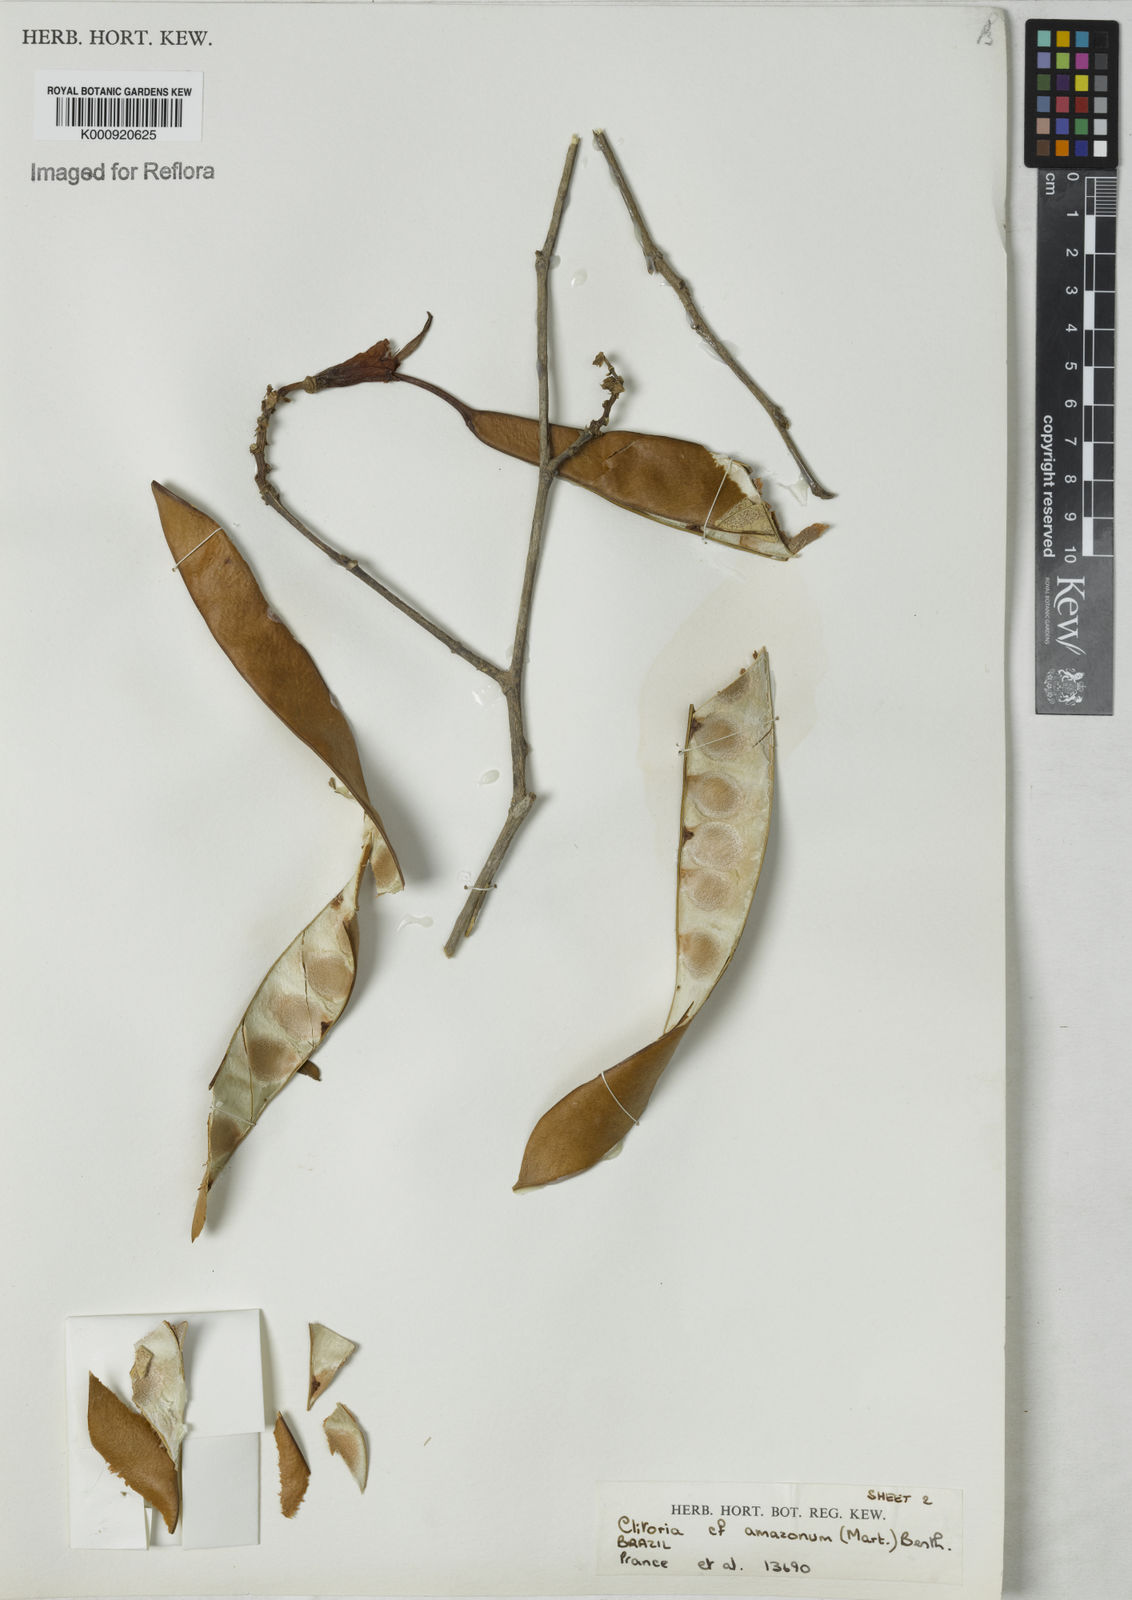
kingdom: Plantae
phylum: Tracheophyta
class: Magnoliopsida
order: Fabales
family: Fabaceae
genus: Clitoria
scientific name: Clitoria amazonum
